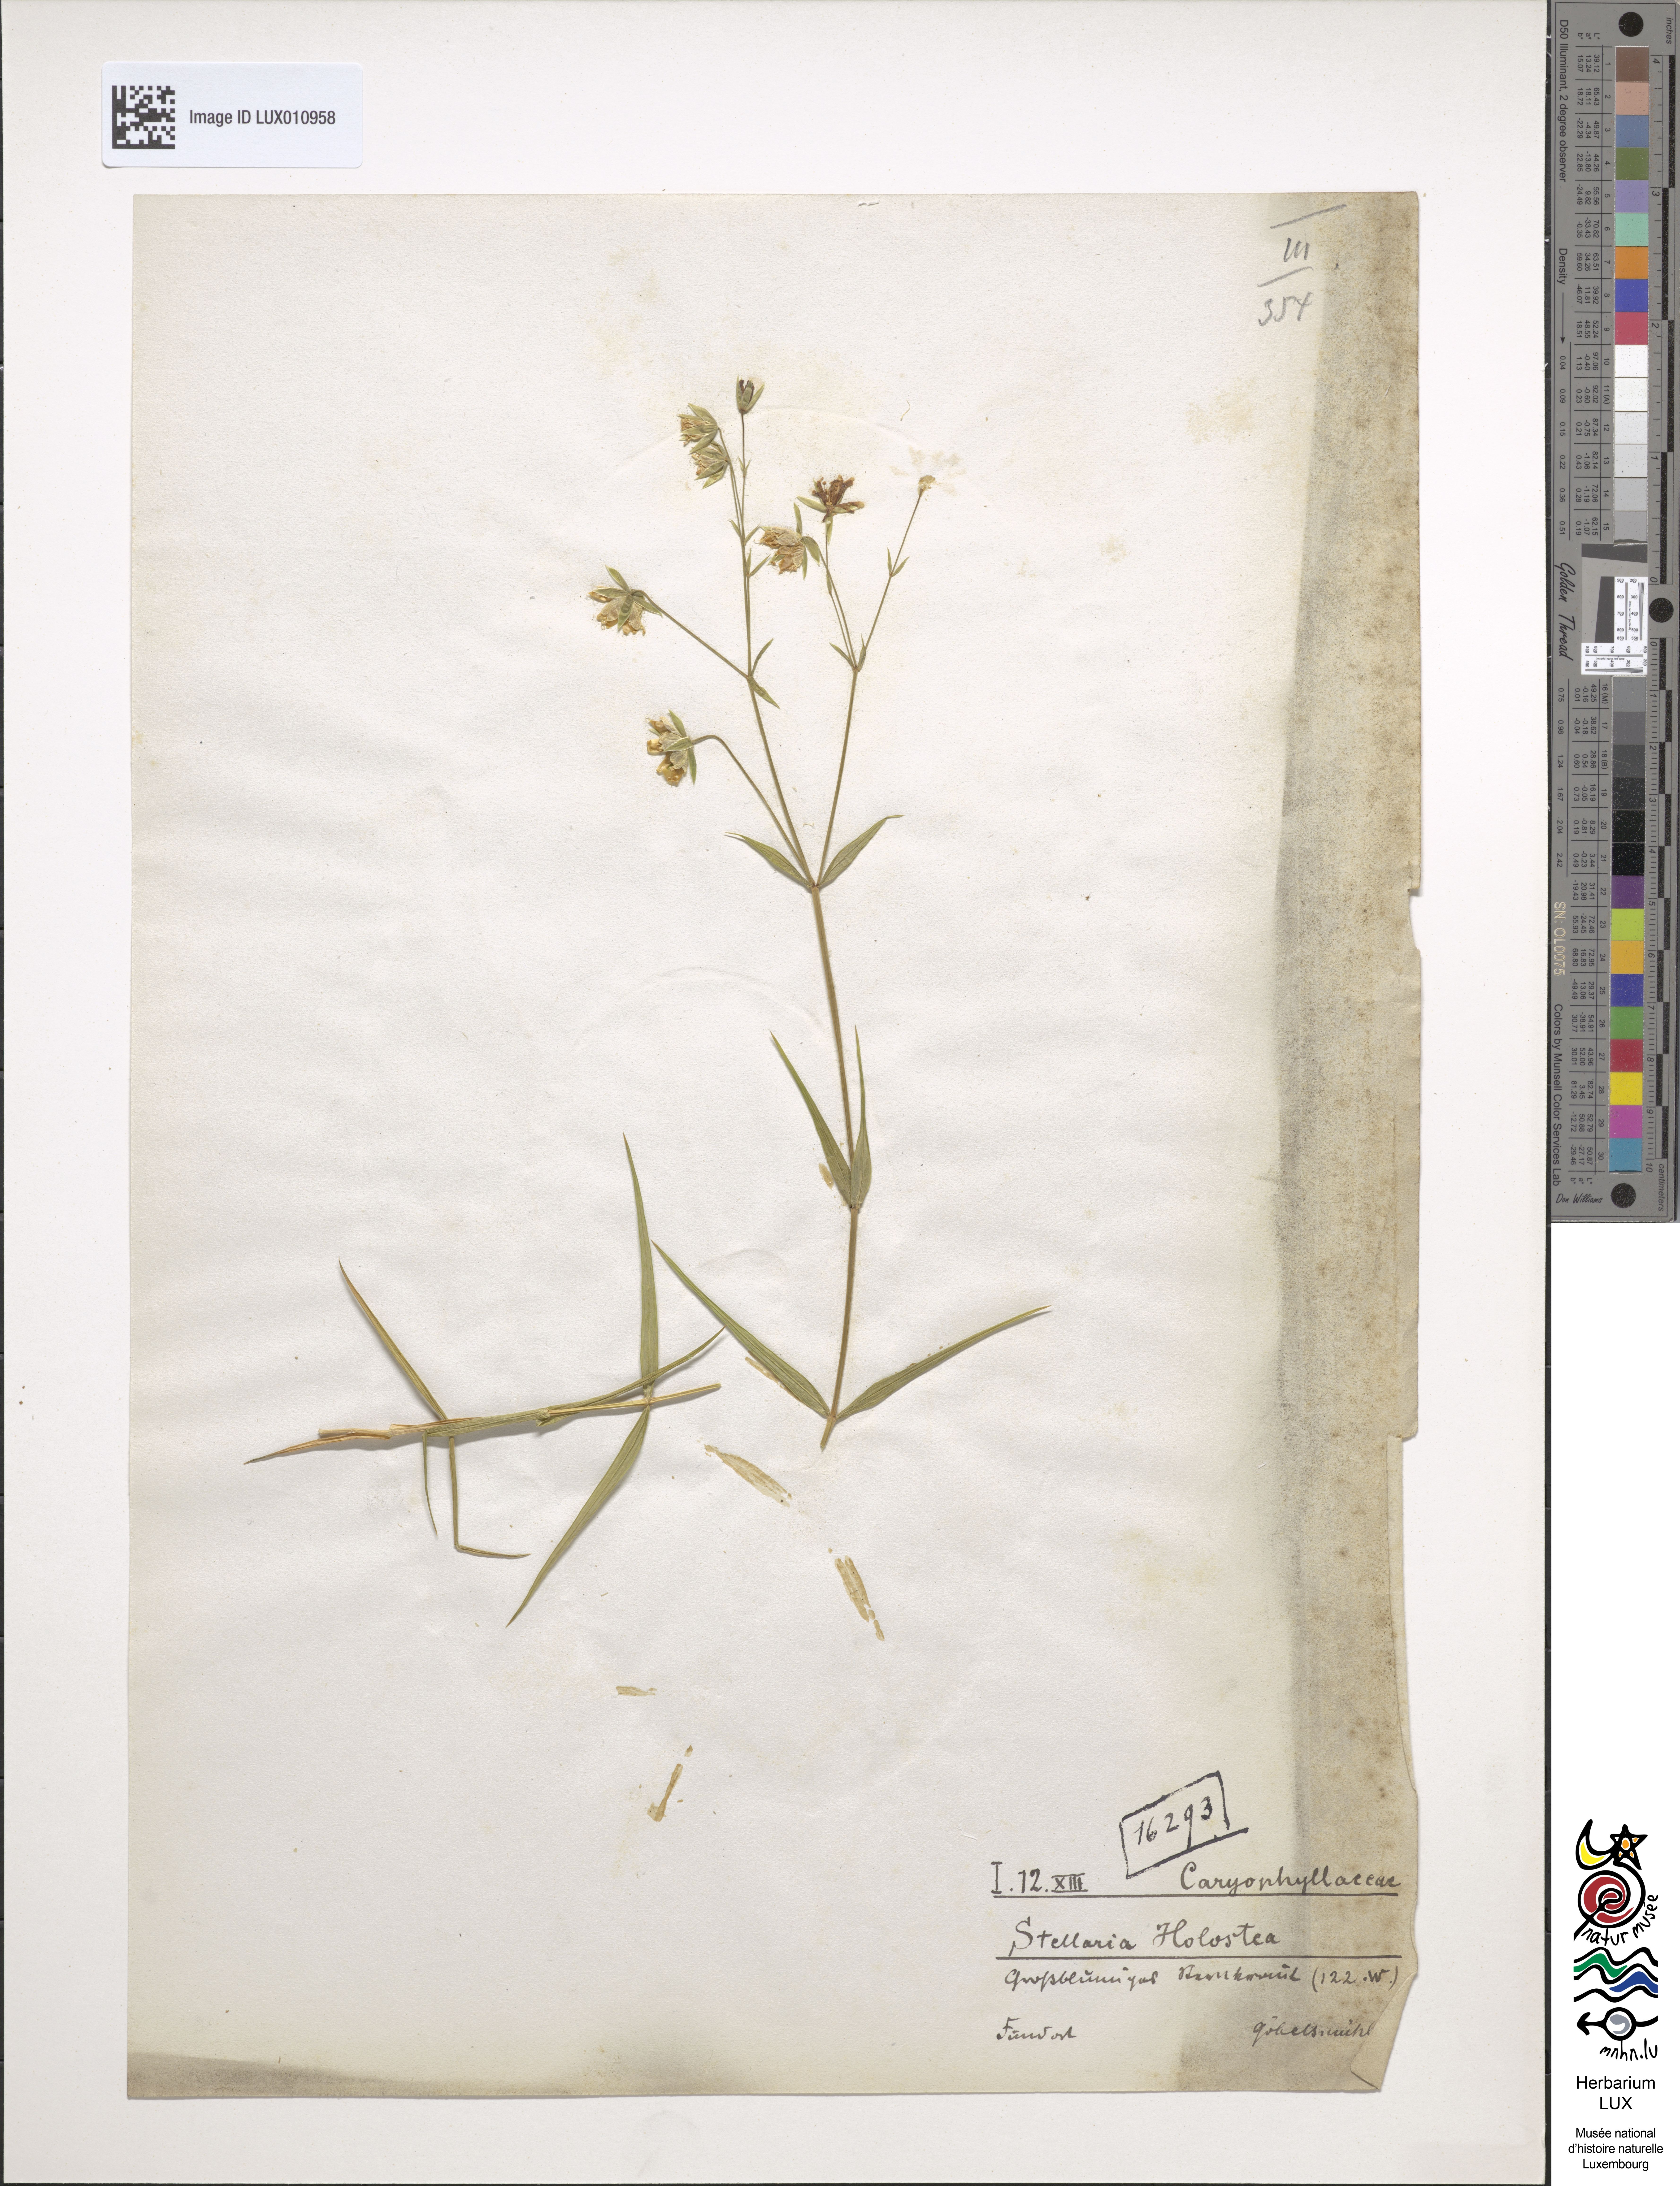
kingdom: Plantae
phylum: Tracheophyta
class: Magnoliopsida
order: Caryophyllales
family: Caryophyllaceae
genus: Rabelera
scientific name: Rabelera holostea
